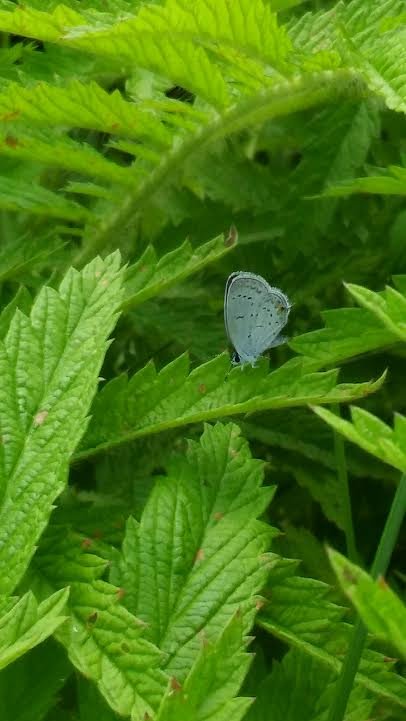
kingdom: Animalia
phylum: Arthropoda
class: Insecta
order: Lepidoptera
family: Lycaenidae
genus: Elkalyce
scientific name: Elkalyce comyntas
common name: Eastern Tailed-Blue
